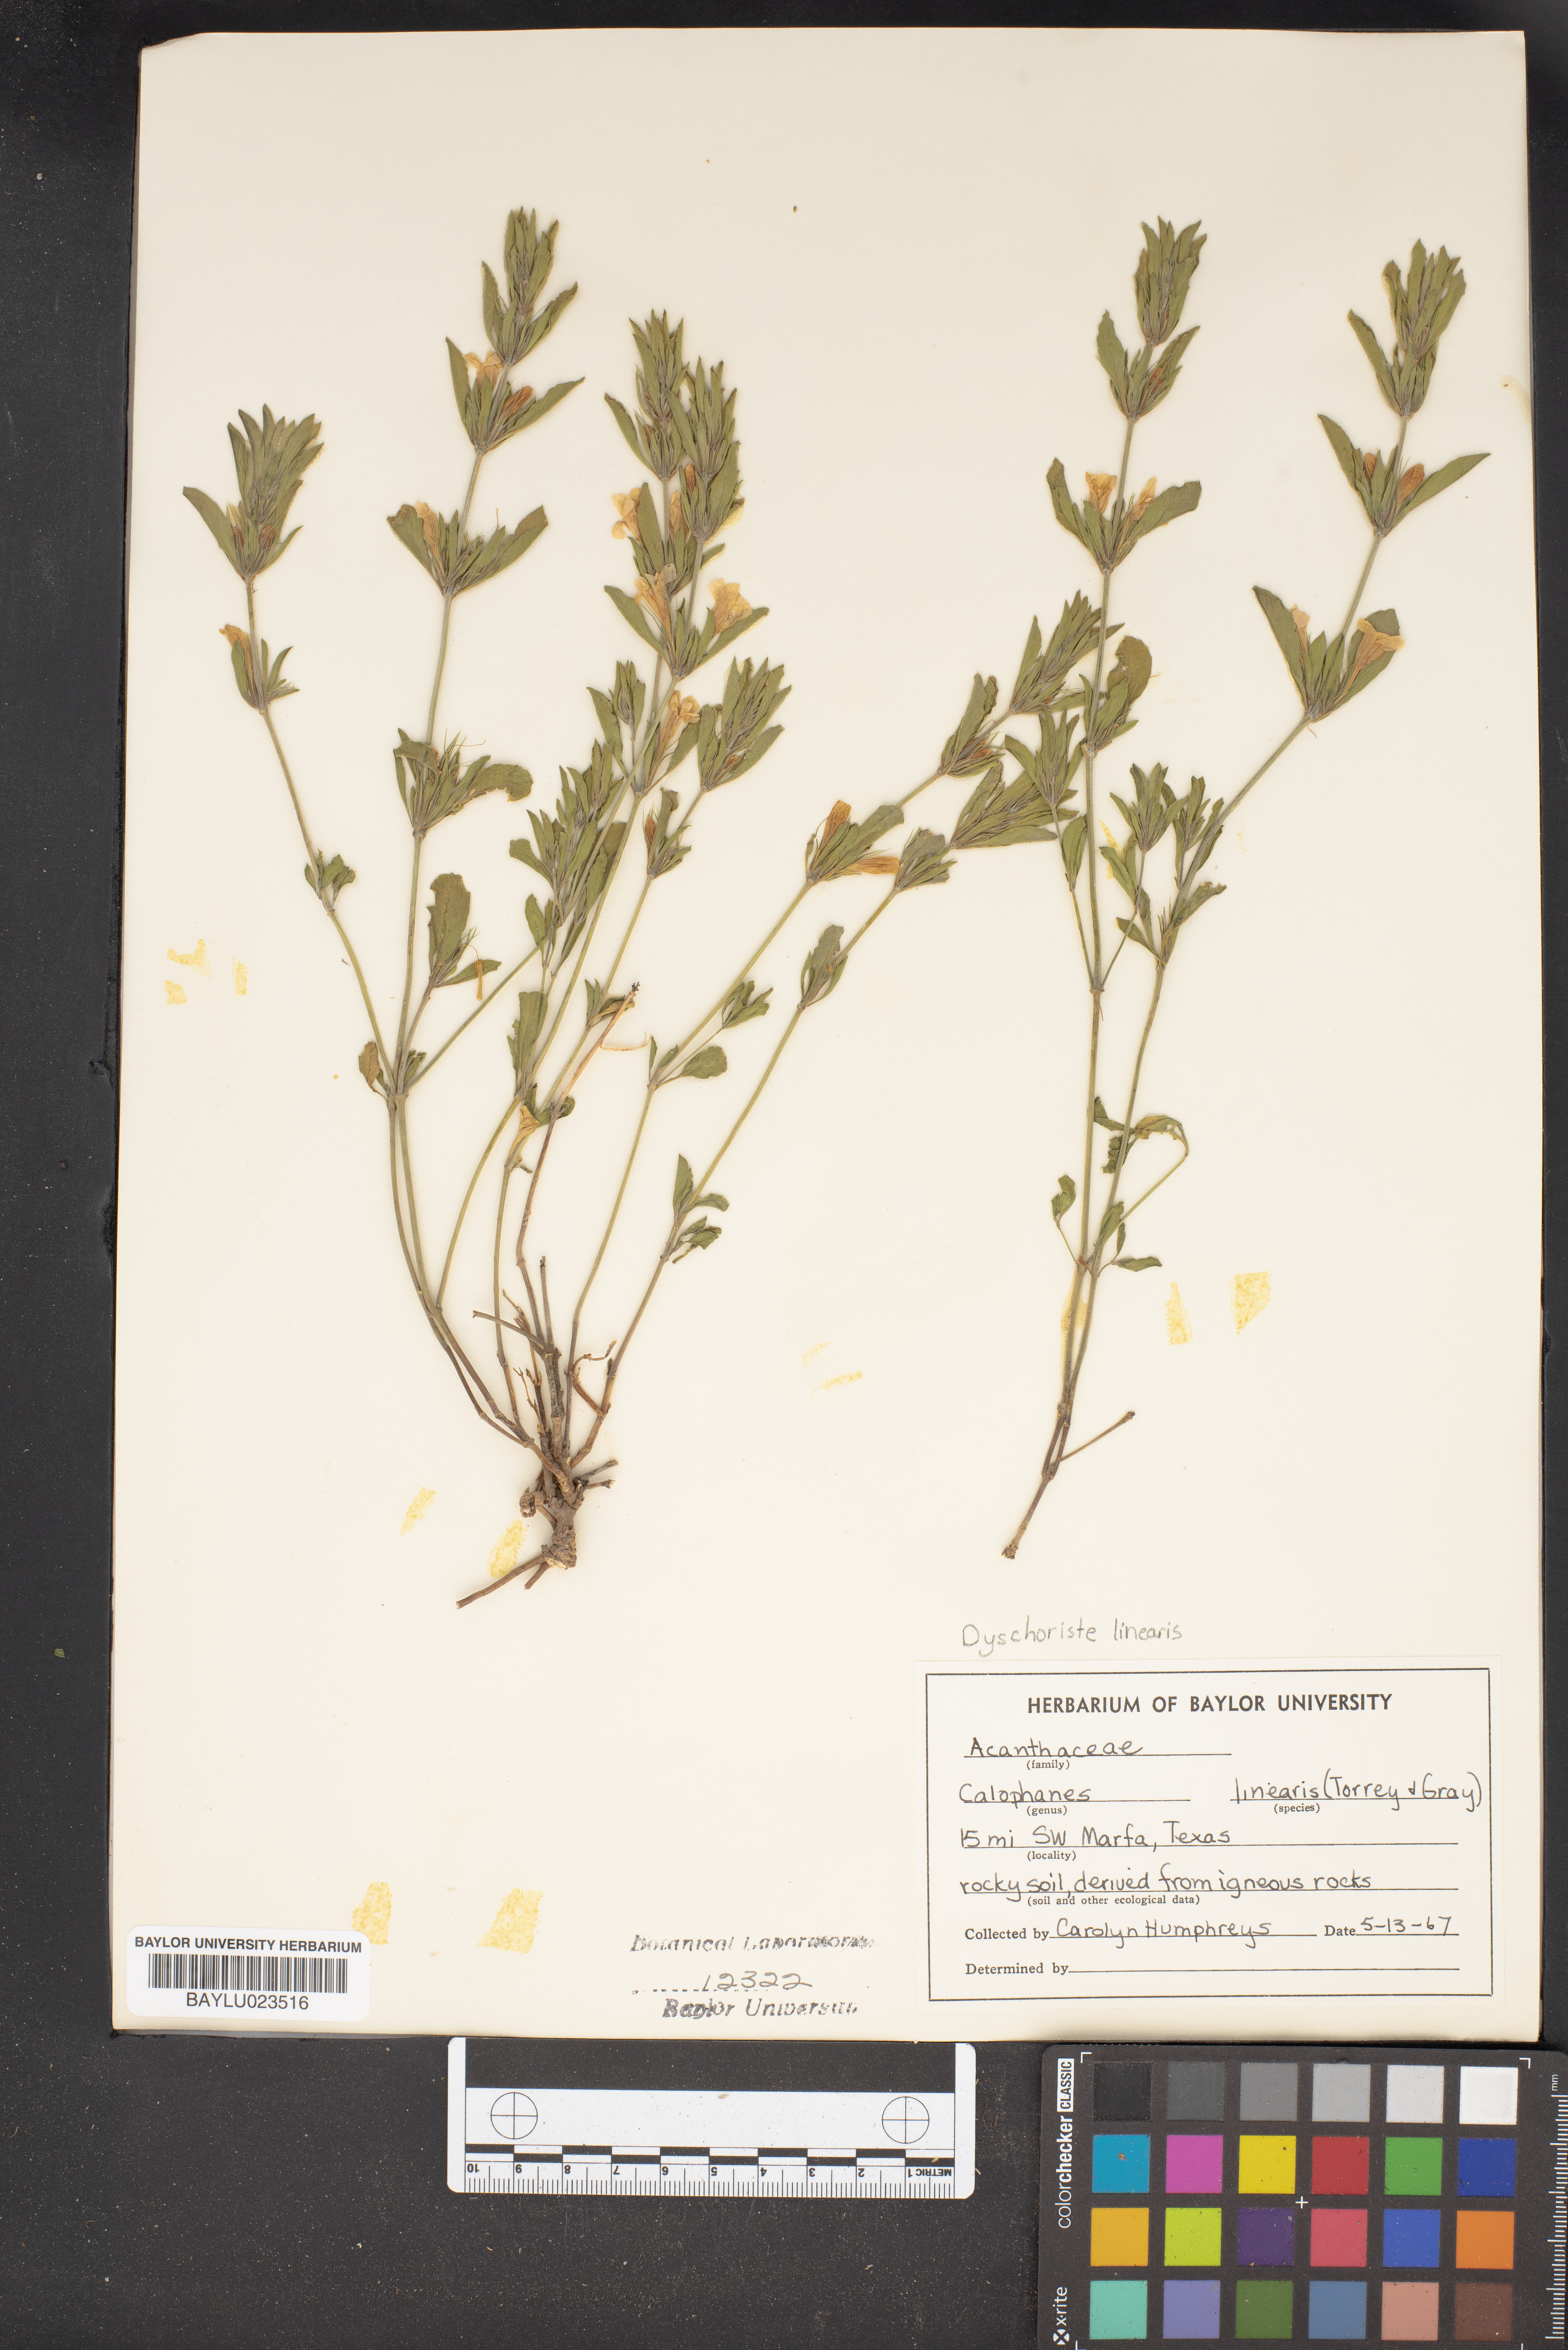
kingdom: Plantae
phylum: Tracheophyta
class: Magnoliopsida
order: Lamiales
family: Acanthaceae
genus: Dyschoriste
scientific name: Dyschoriste linearis
